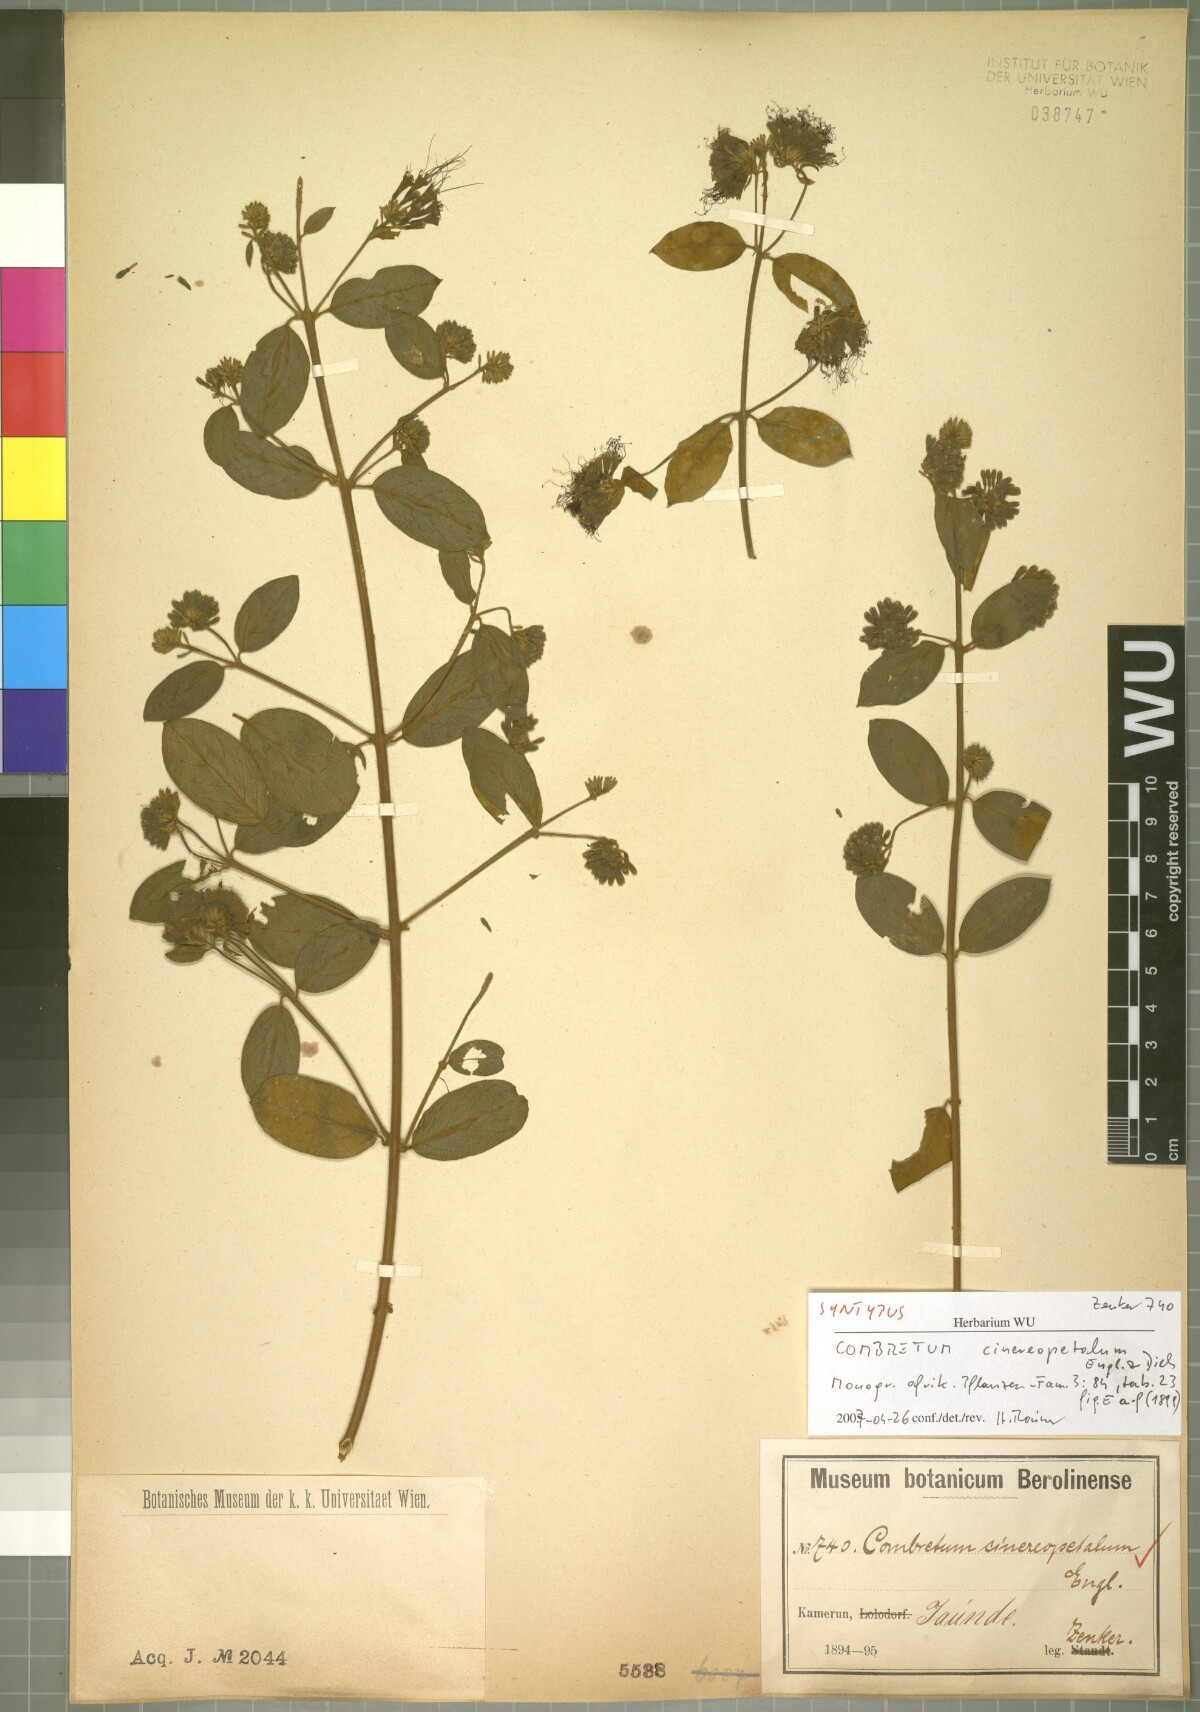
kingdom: Plantae
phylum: Tracheophyta
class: Magnoliopsida
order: Myrtales
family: Combretaceae
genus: Combretum
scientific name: Combretum cinereopetalum
